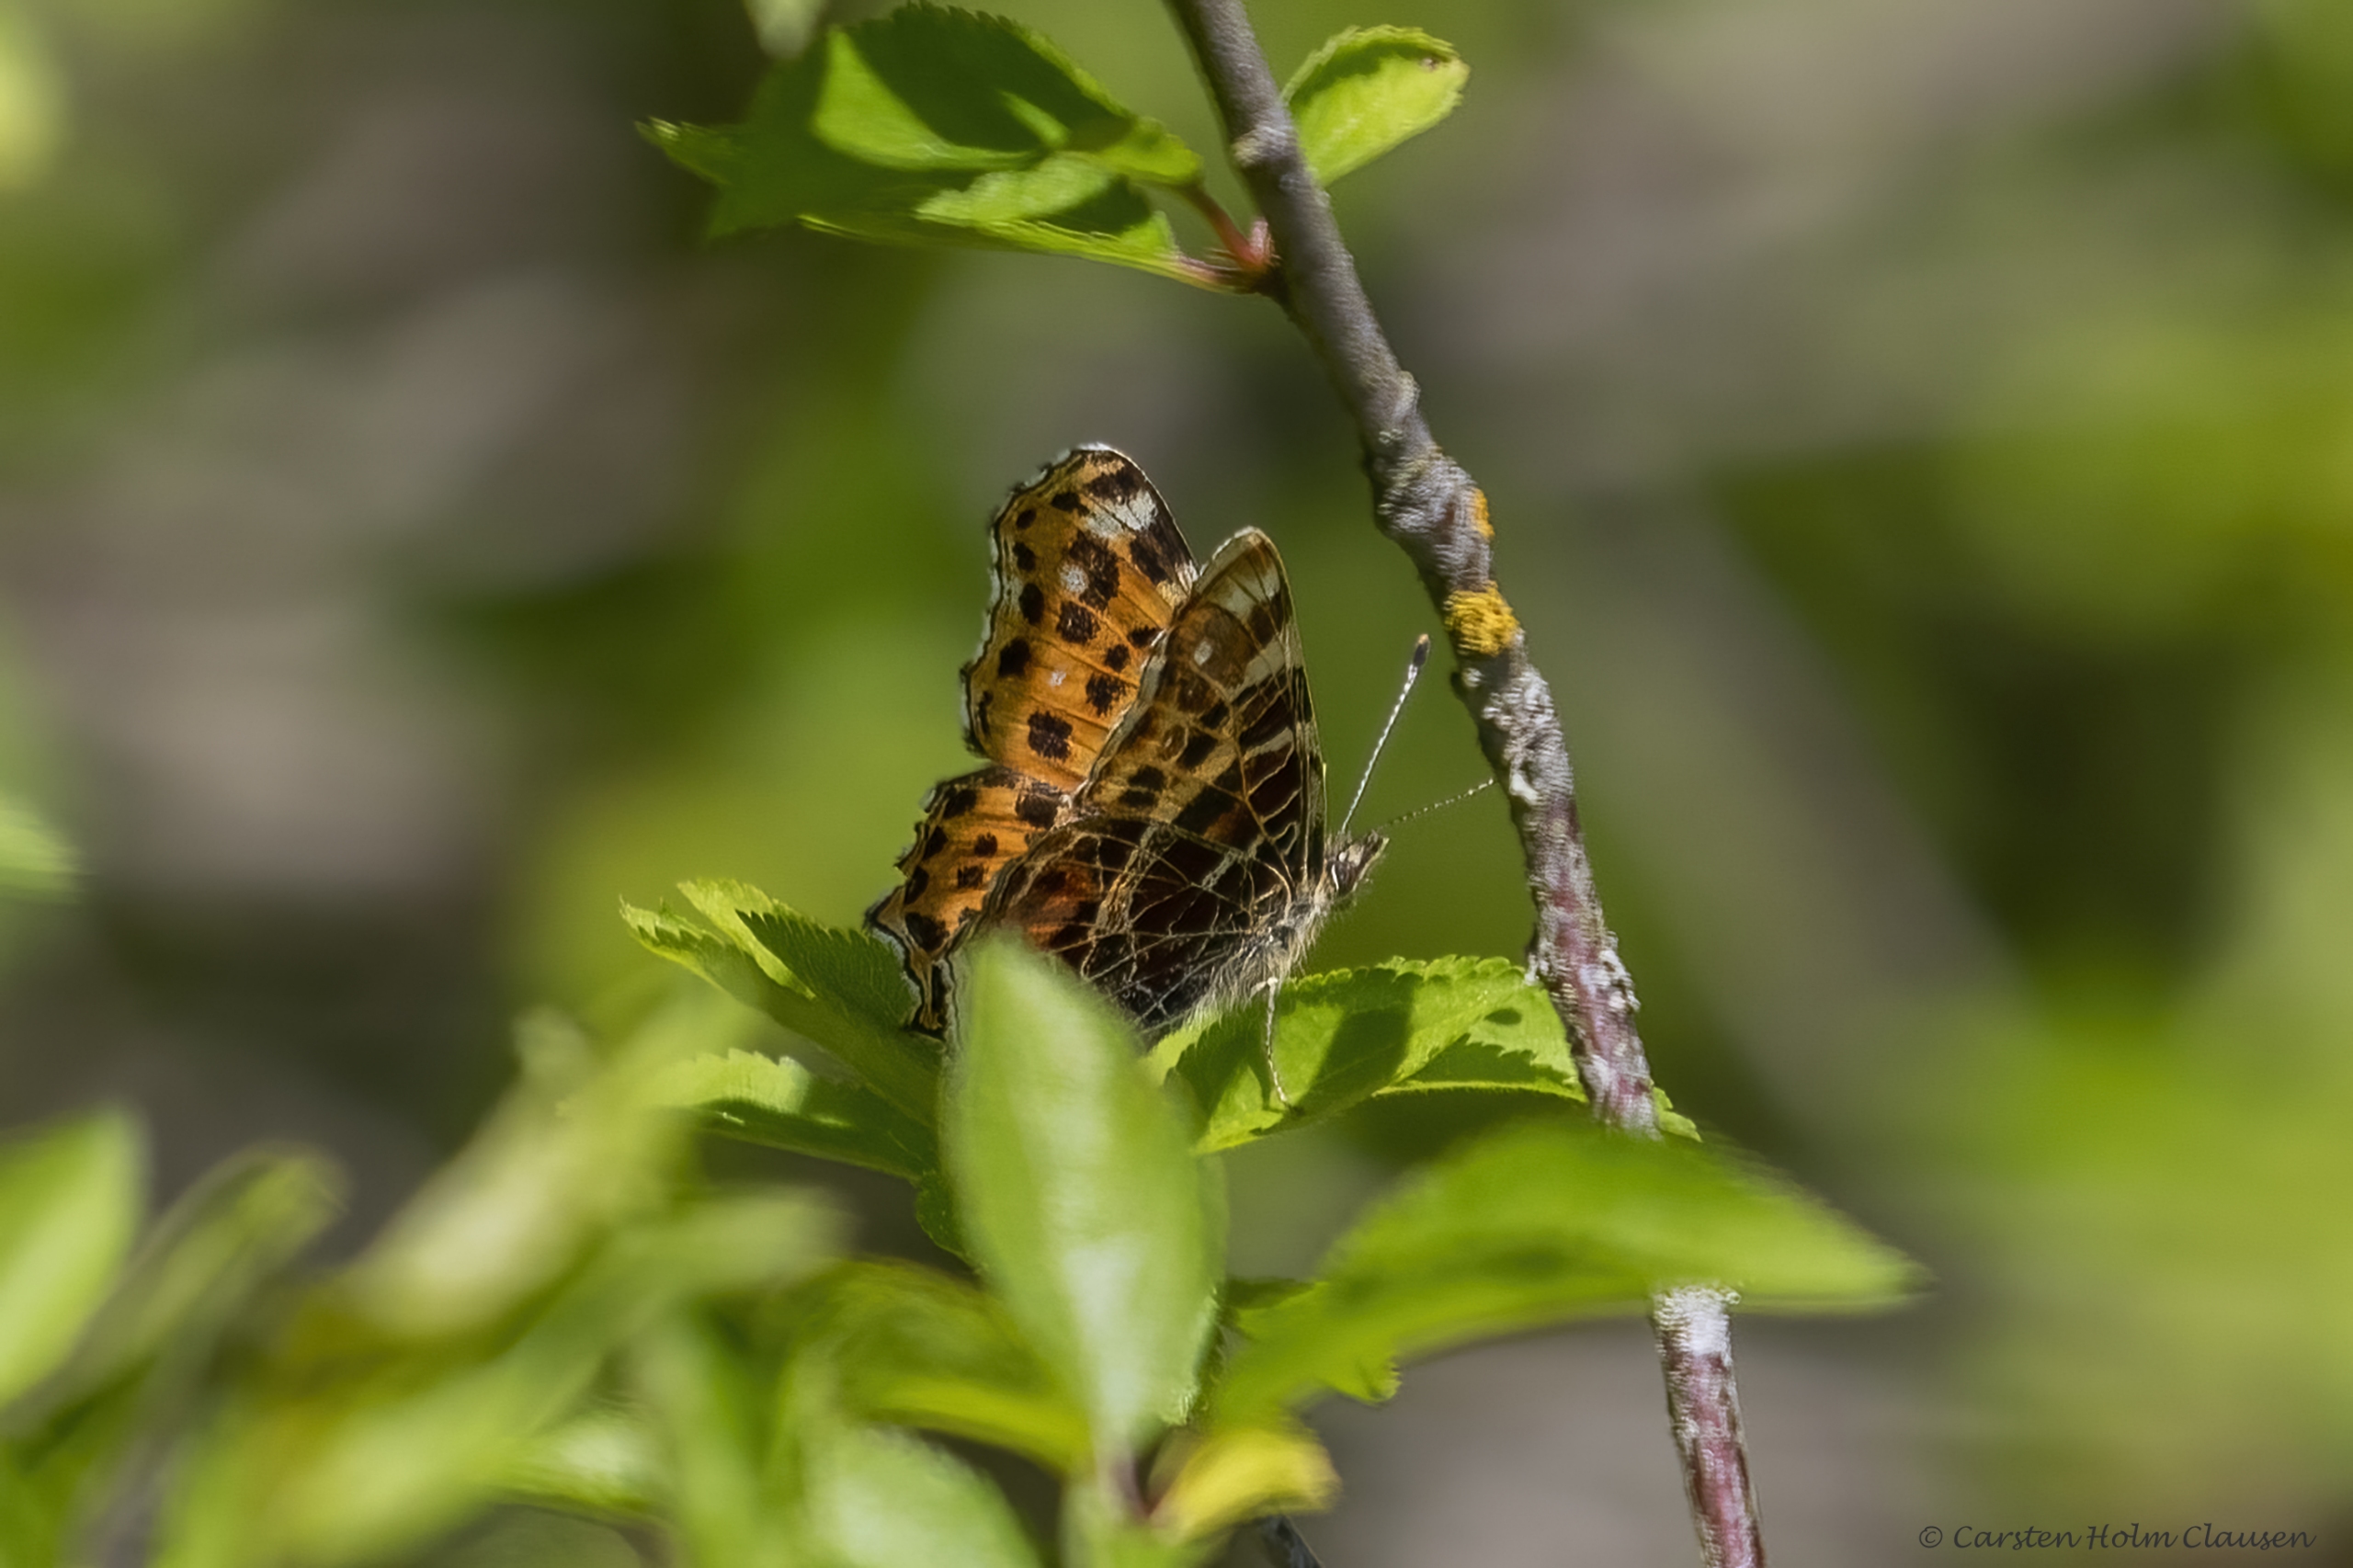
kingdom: Animalia
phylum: Arthropoda
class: Insecta
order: Lepidoptera
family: Nymphalidae
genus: Araschnia
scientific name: Araschnia levana
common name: Nældesommerfugl
